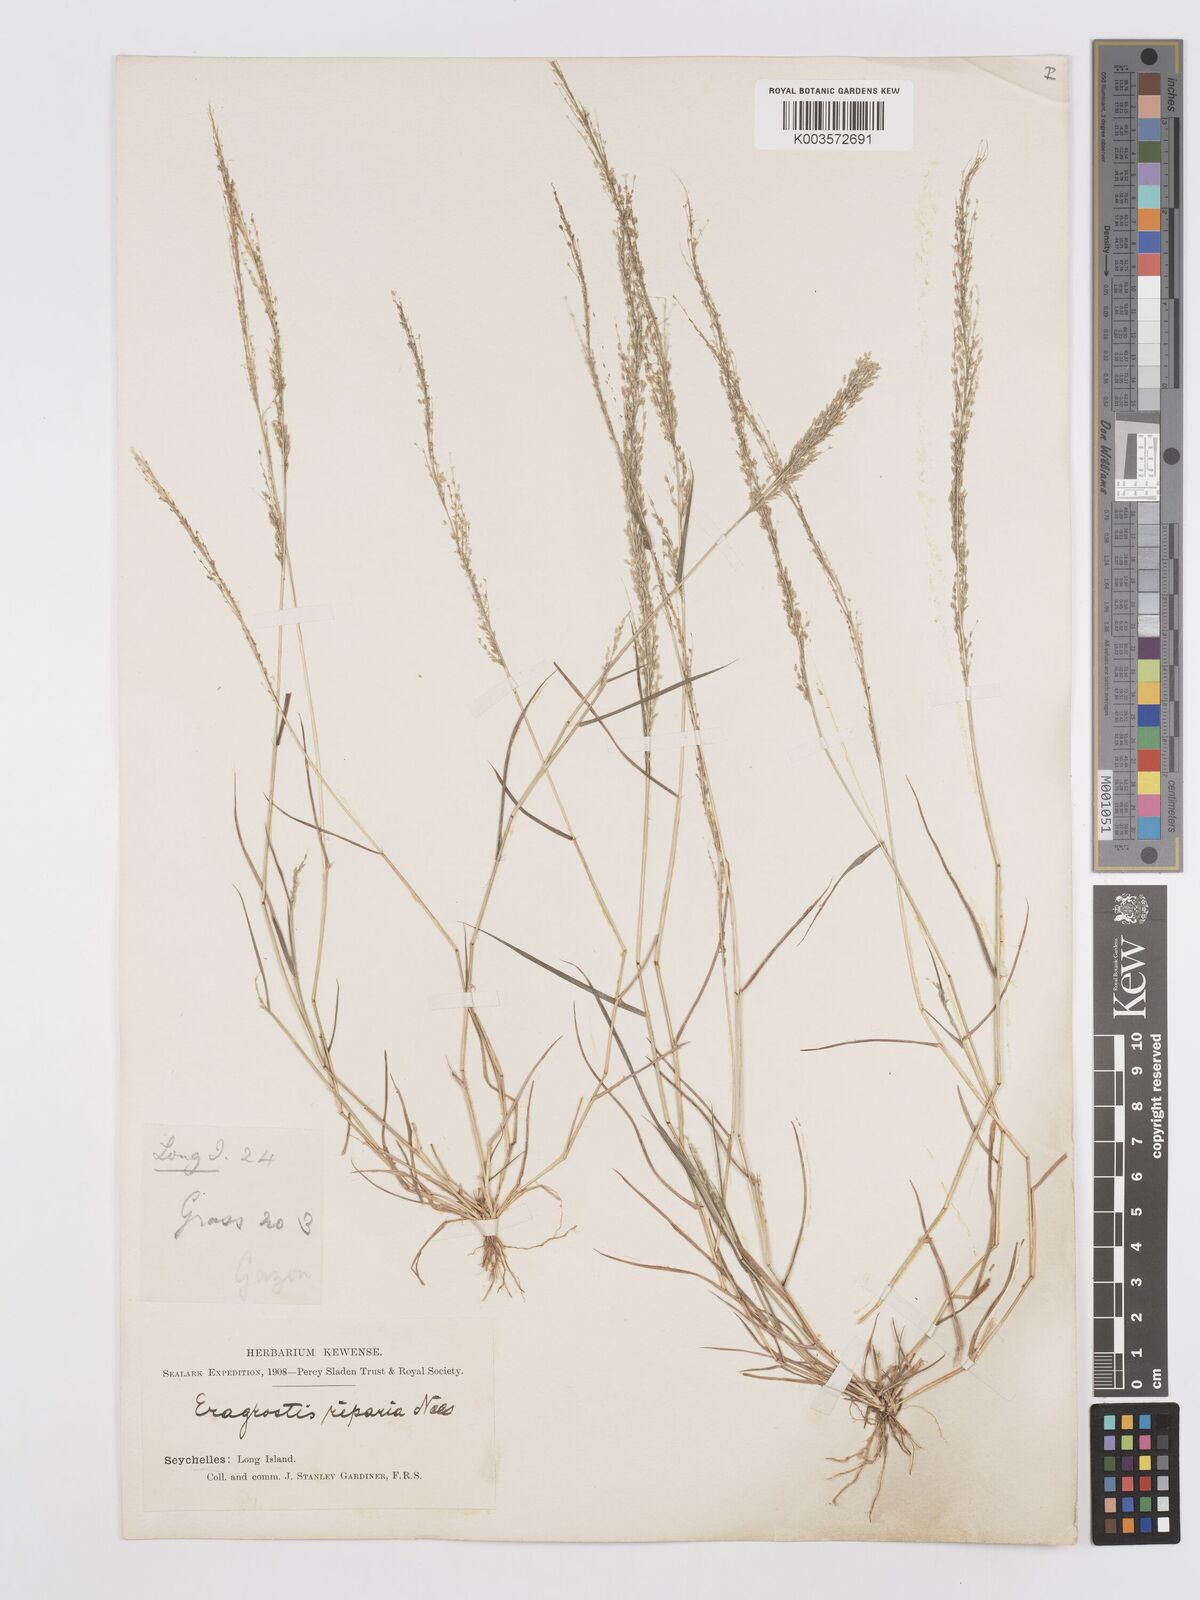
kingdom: Plantae
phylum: Tracheophyta
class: Liliopsida
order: Poales
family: Poaceae
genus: Eragrostis
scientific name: Eragrostis tenella
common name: Japanese lovegrass
